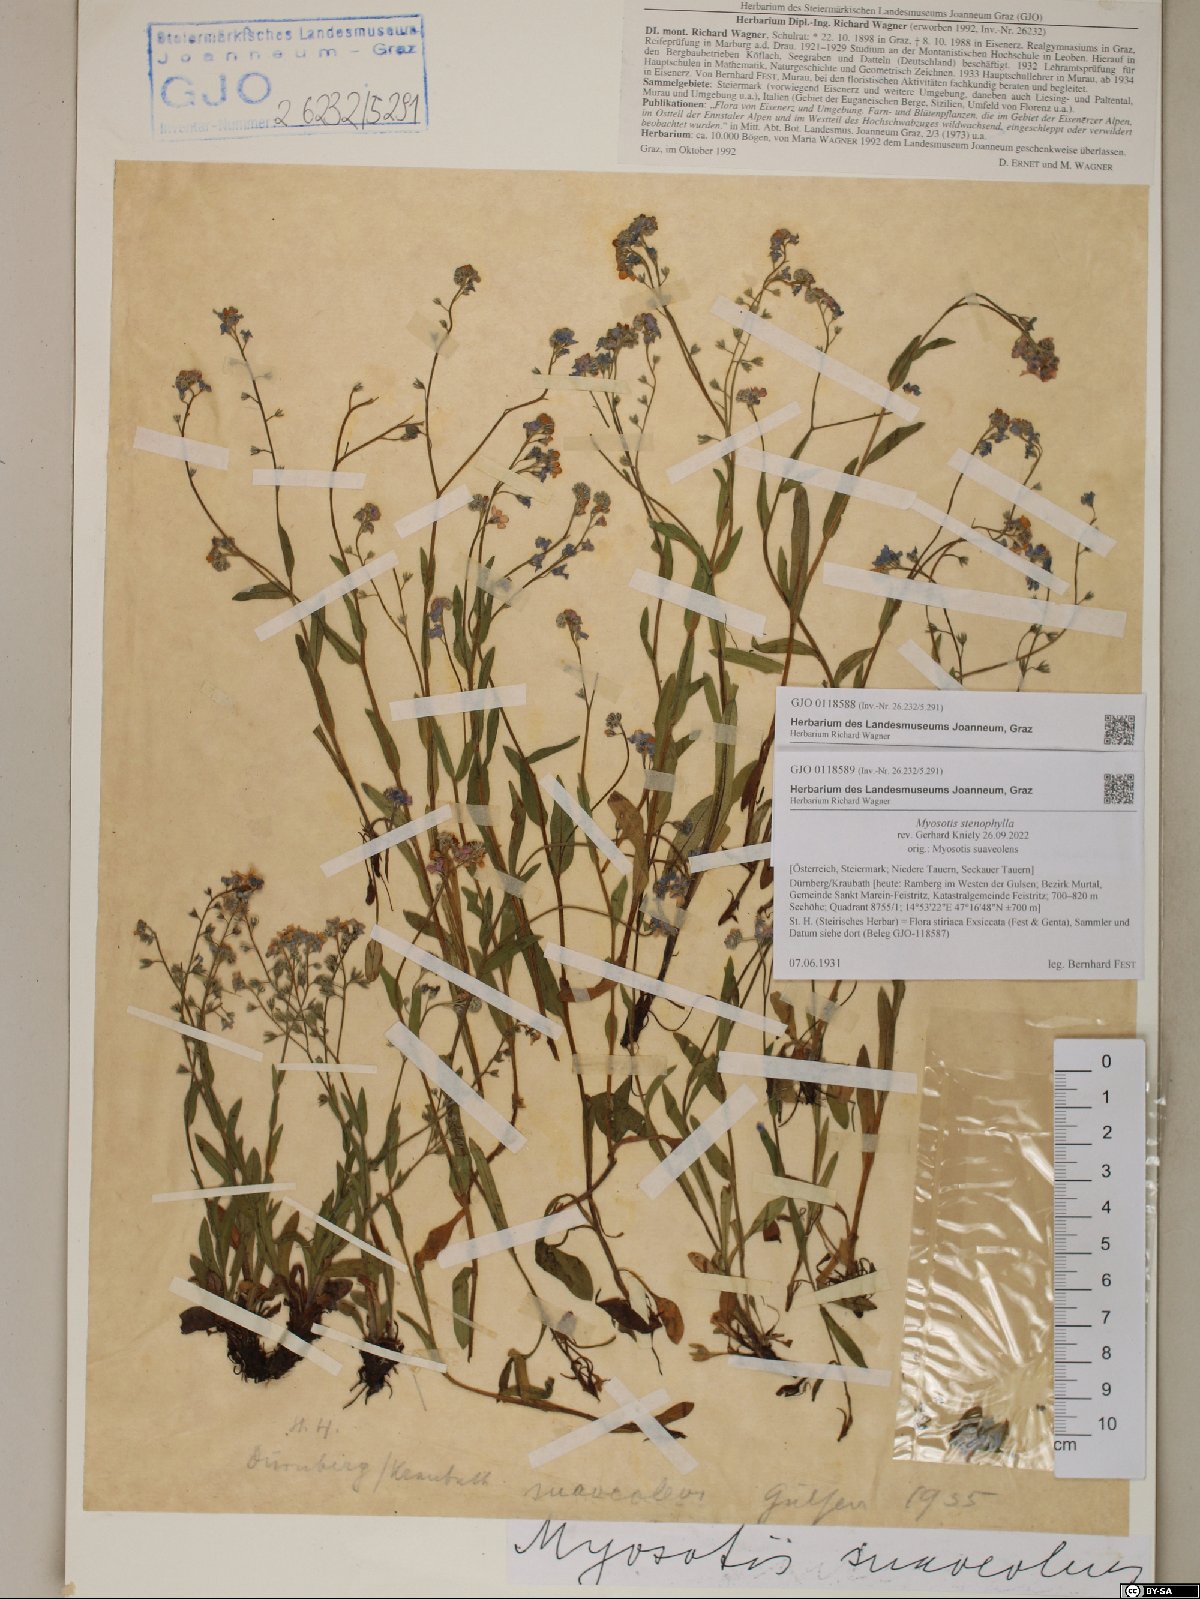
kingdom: Plantae
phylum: Tracheophyta
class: Magnoliopsida
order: Boraginales
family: Boraginaceae
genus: Myosotis
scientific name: Myosotis stenophylla
